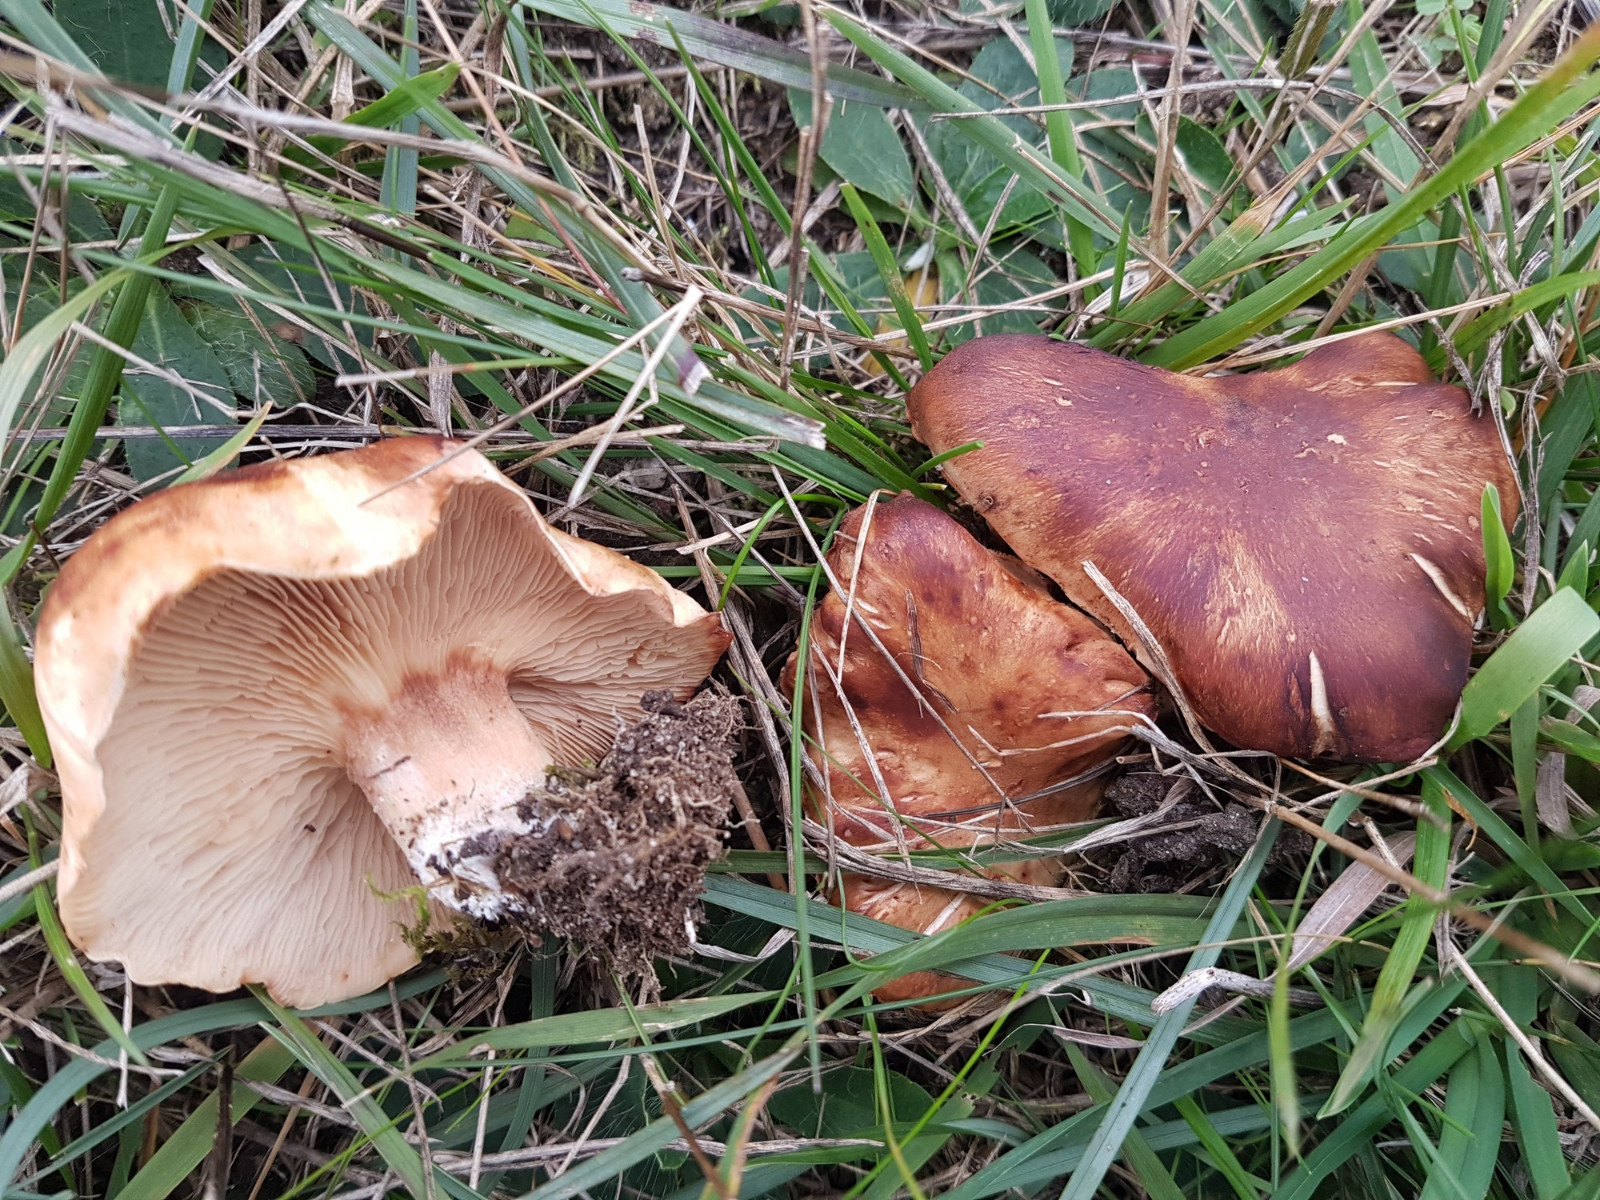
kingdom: Fungi
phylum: Basidiomycota
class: Agaricomycetes
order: Agaricales
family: Entolomataceae
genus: Clitopilus
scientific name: Clitopilus geminus
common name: kødfarvet troldhat
